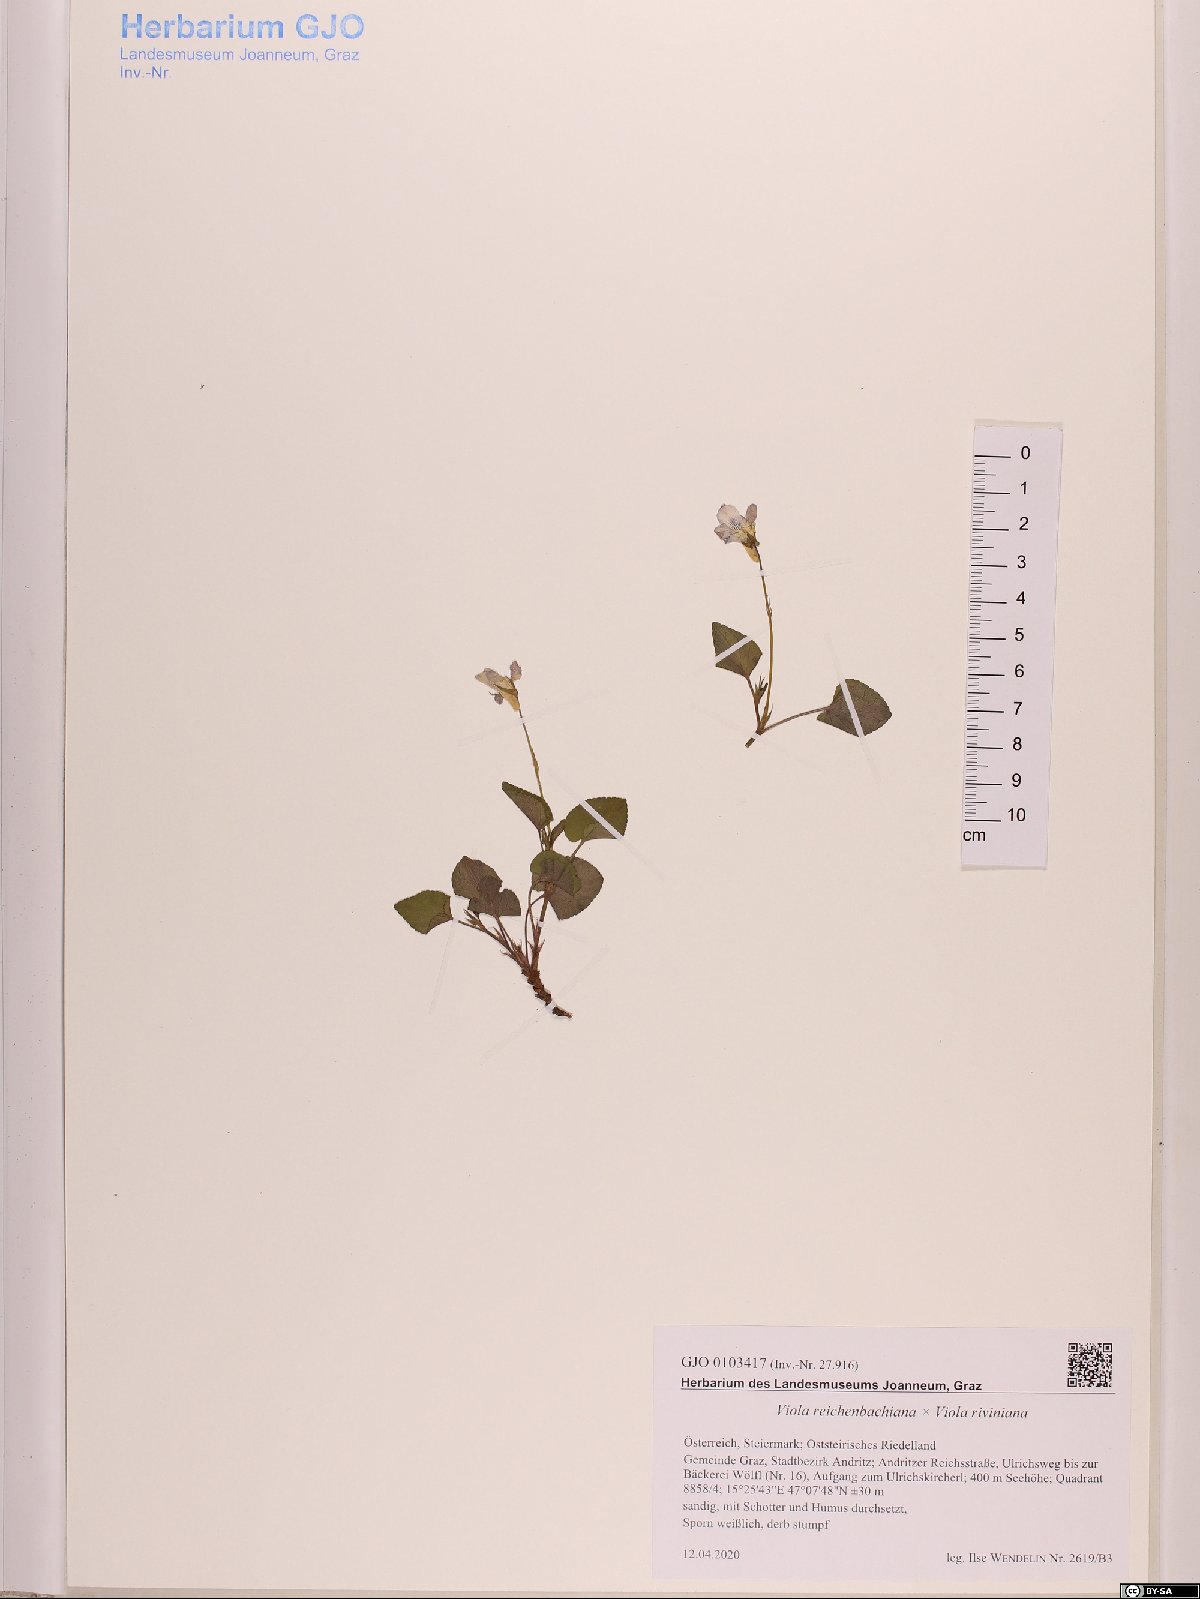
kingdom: Plantae
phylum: Tracheophyta
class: Magnoliopsida
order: Malpighiales
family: Violaceae
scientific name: Violaceae
